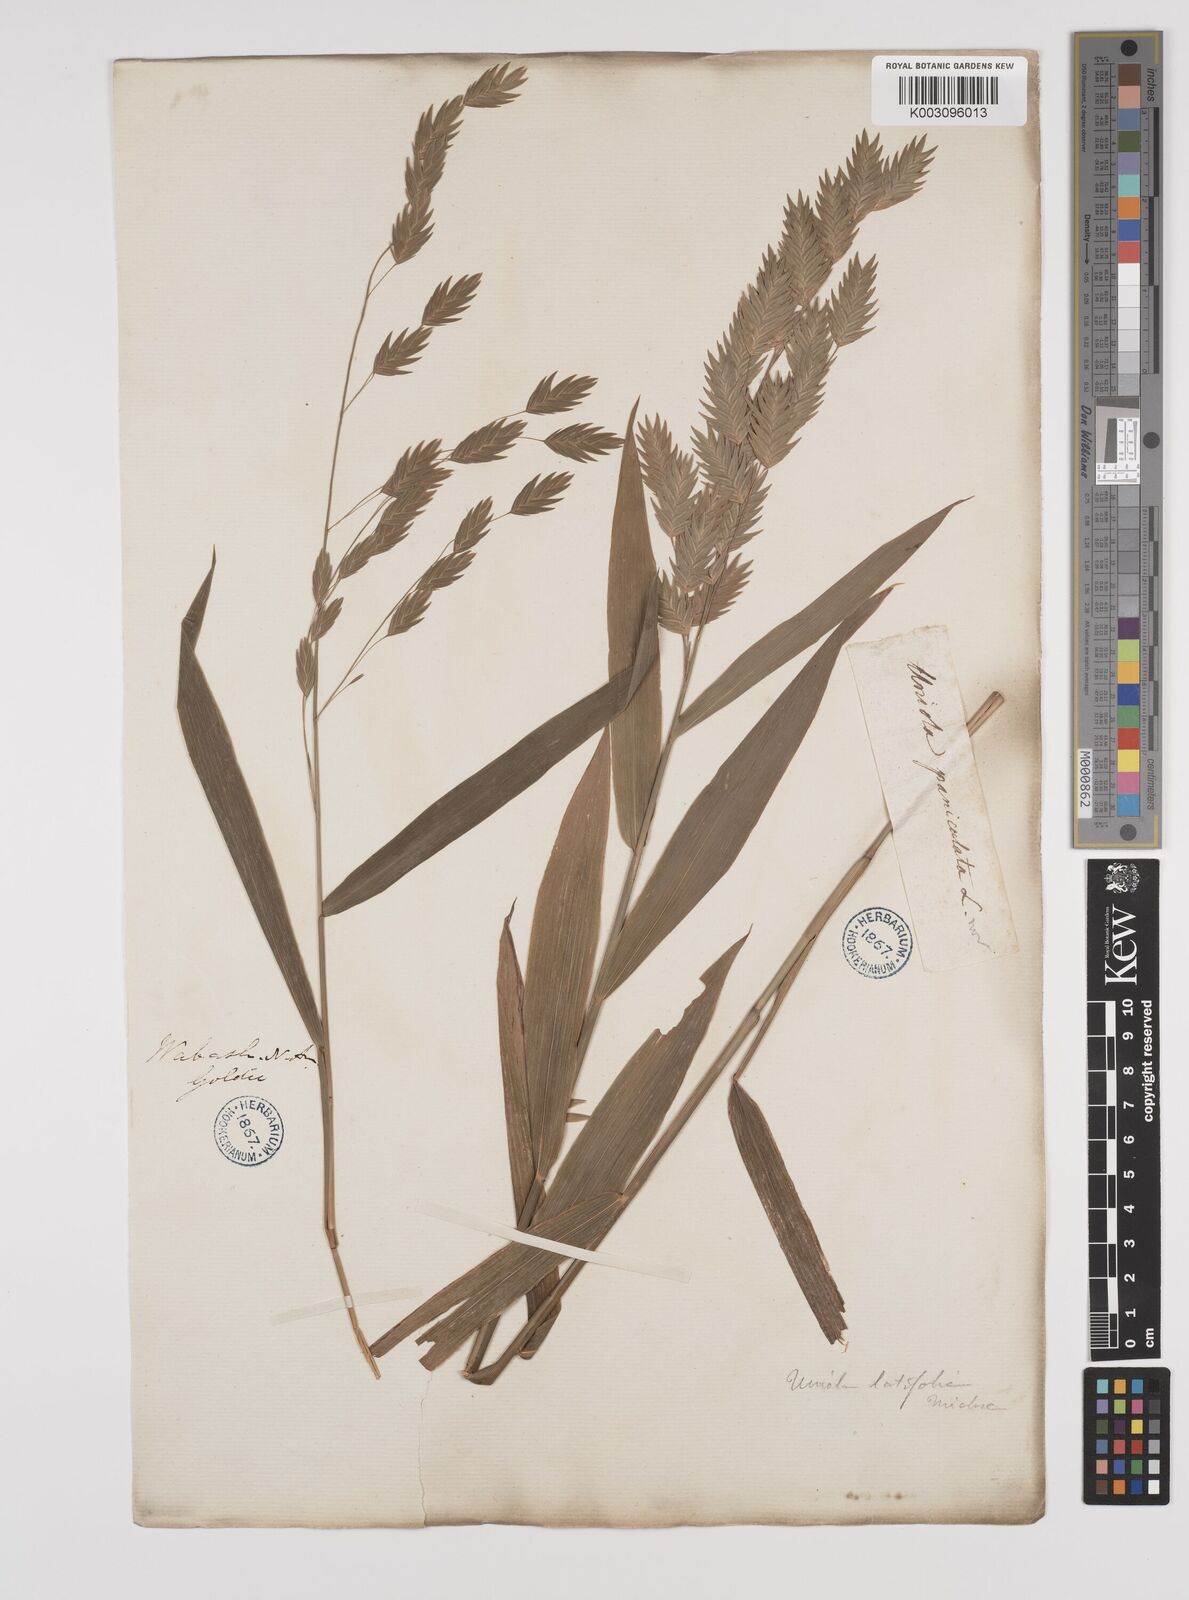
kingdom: Plantae
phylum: Tracheophyta
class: Liliopsida
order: Poales
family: Poaceae
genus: Chasmanthium
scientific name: Chasmanthium latifolium
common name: Broad-leaved chasmanthium
